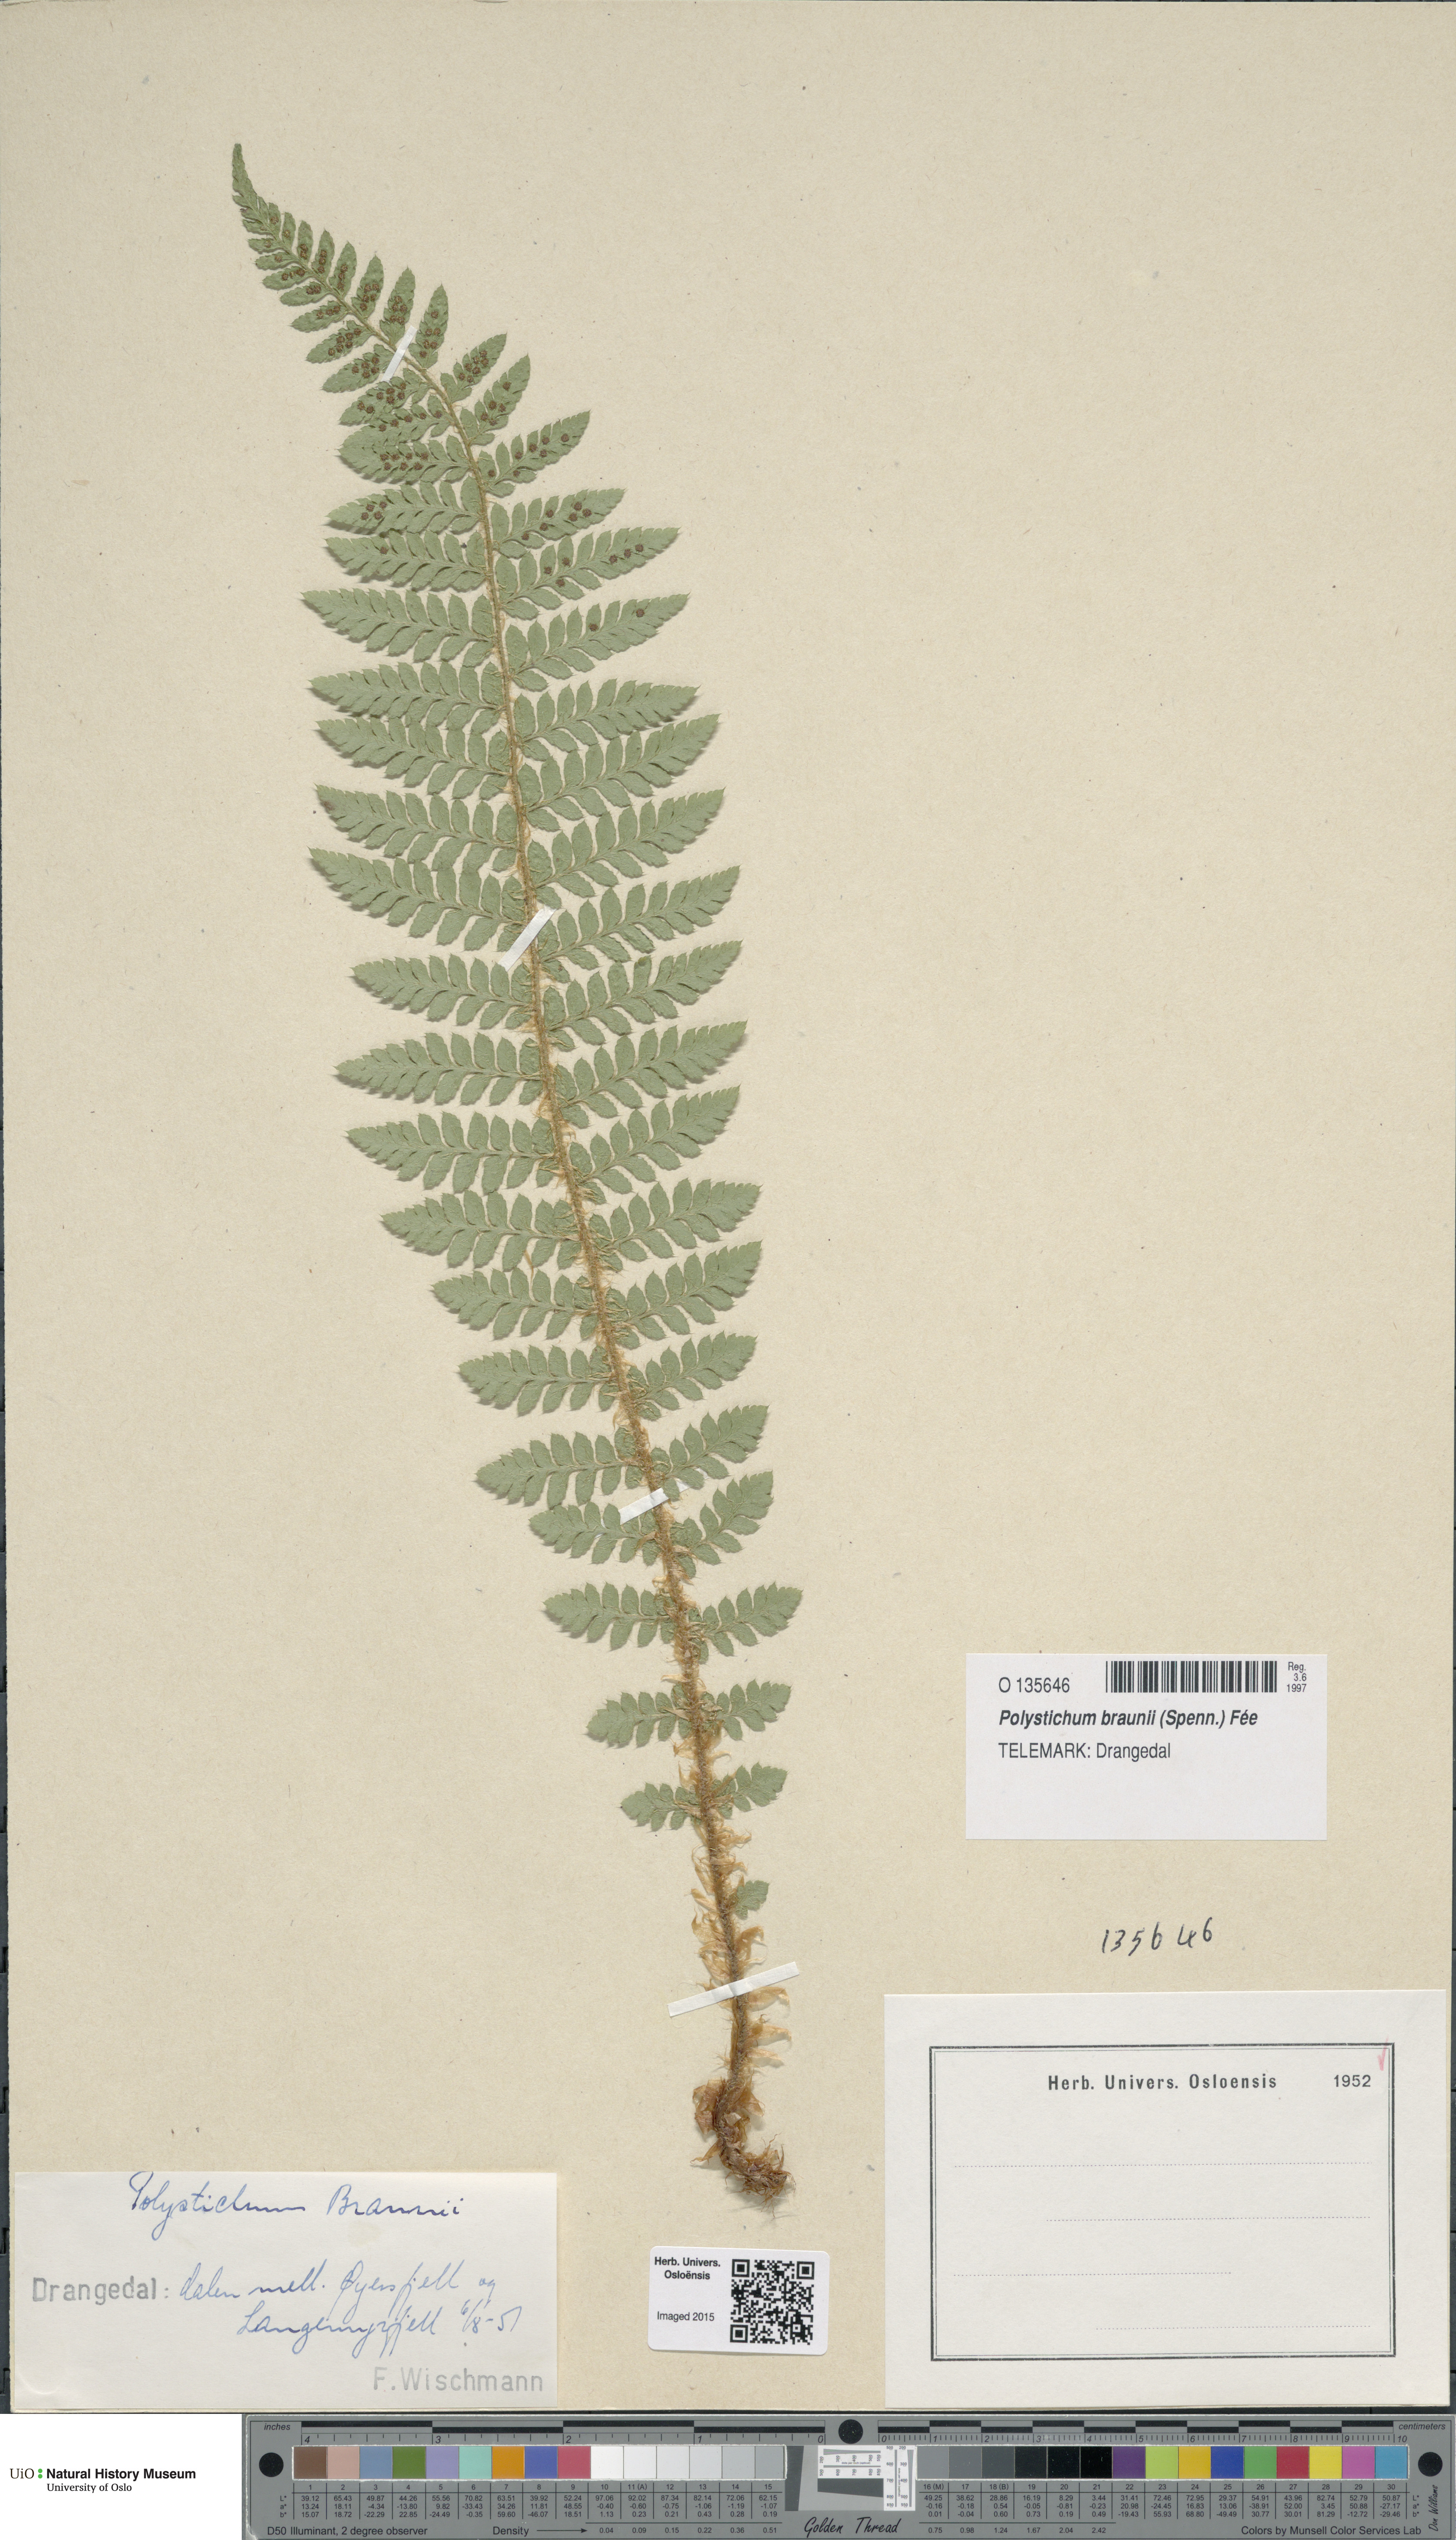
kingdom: Plantae
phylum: Tracheophyta
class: Polypodiopsida
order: Polypodiales
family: Dryopteridaceae
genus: Polystichum
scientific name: Polystichum braunii
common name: Braun's holly fern
